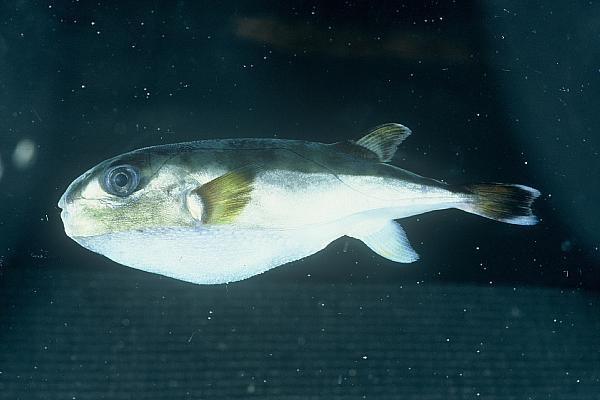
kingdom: Animalia
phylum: Chordata
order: Tetraodontiformes
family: Tetraodontidae
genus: Lagocephalus
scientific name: Lagocephalus gloveri
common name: Brown-backed toadfish
